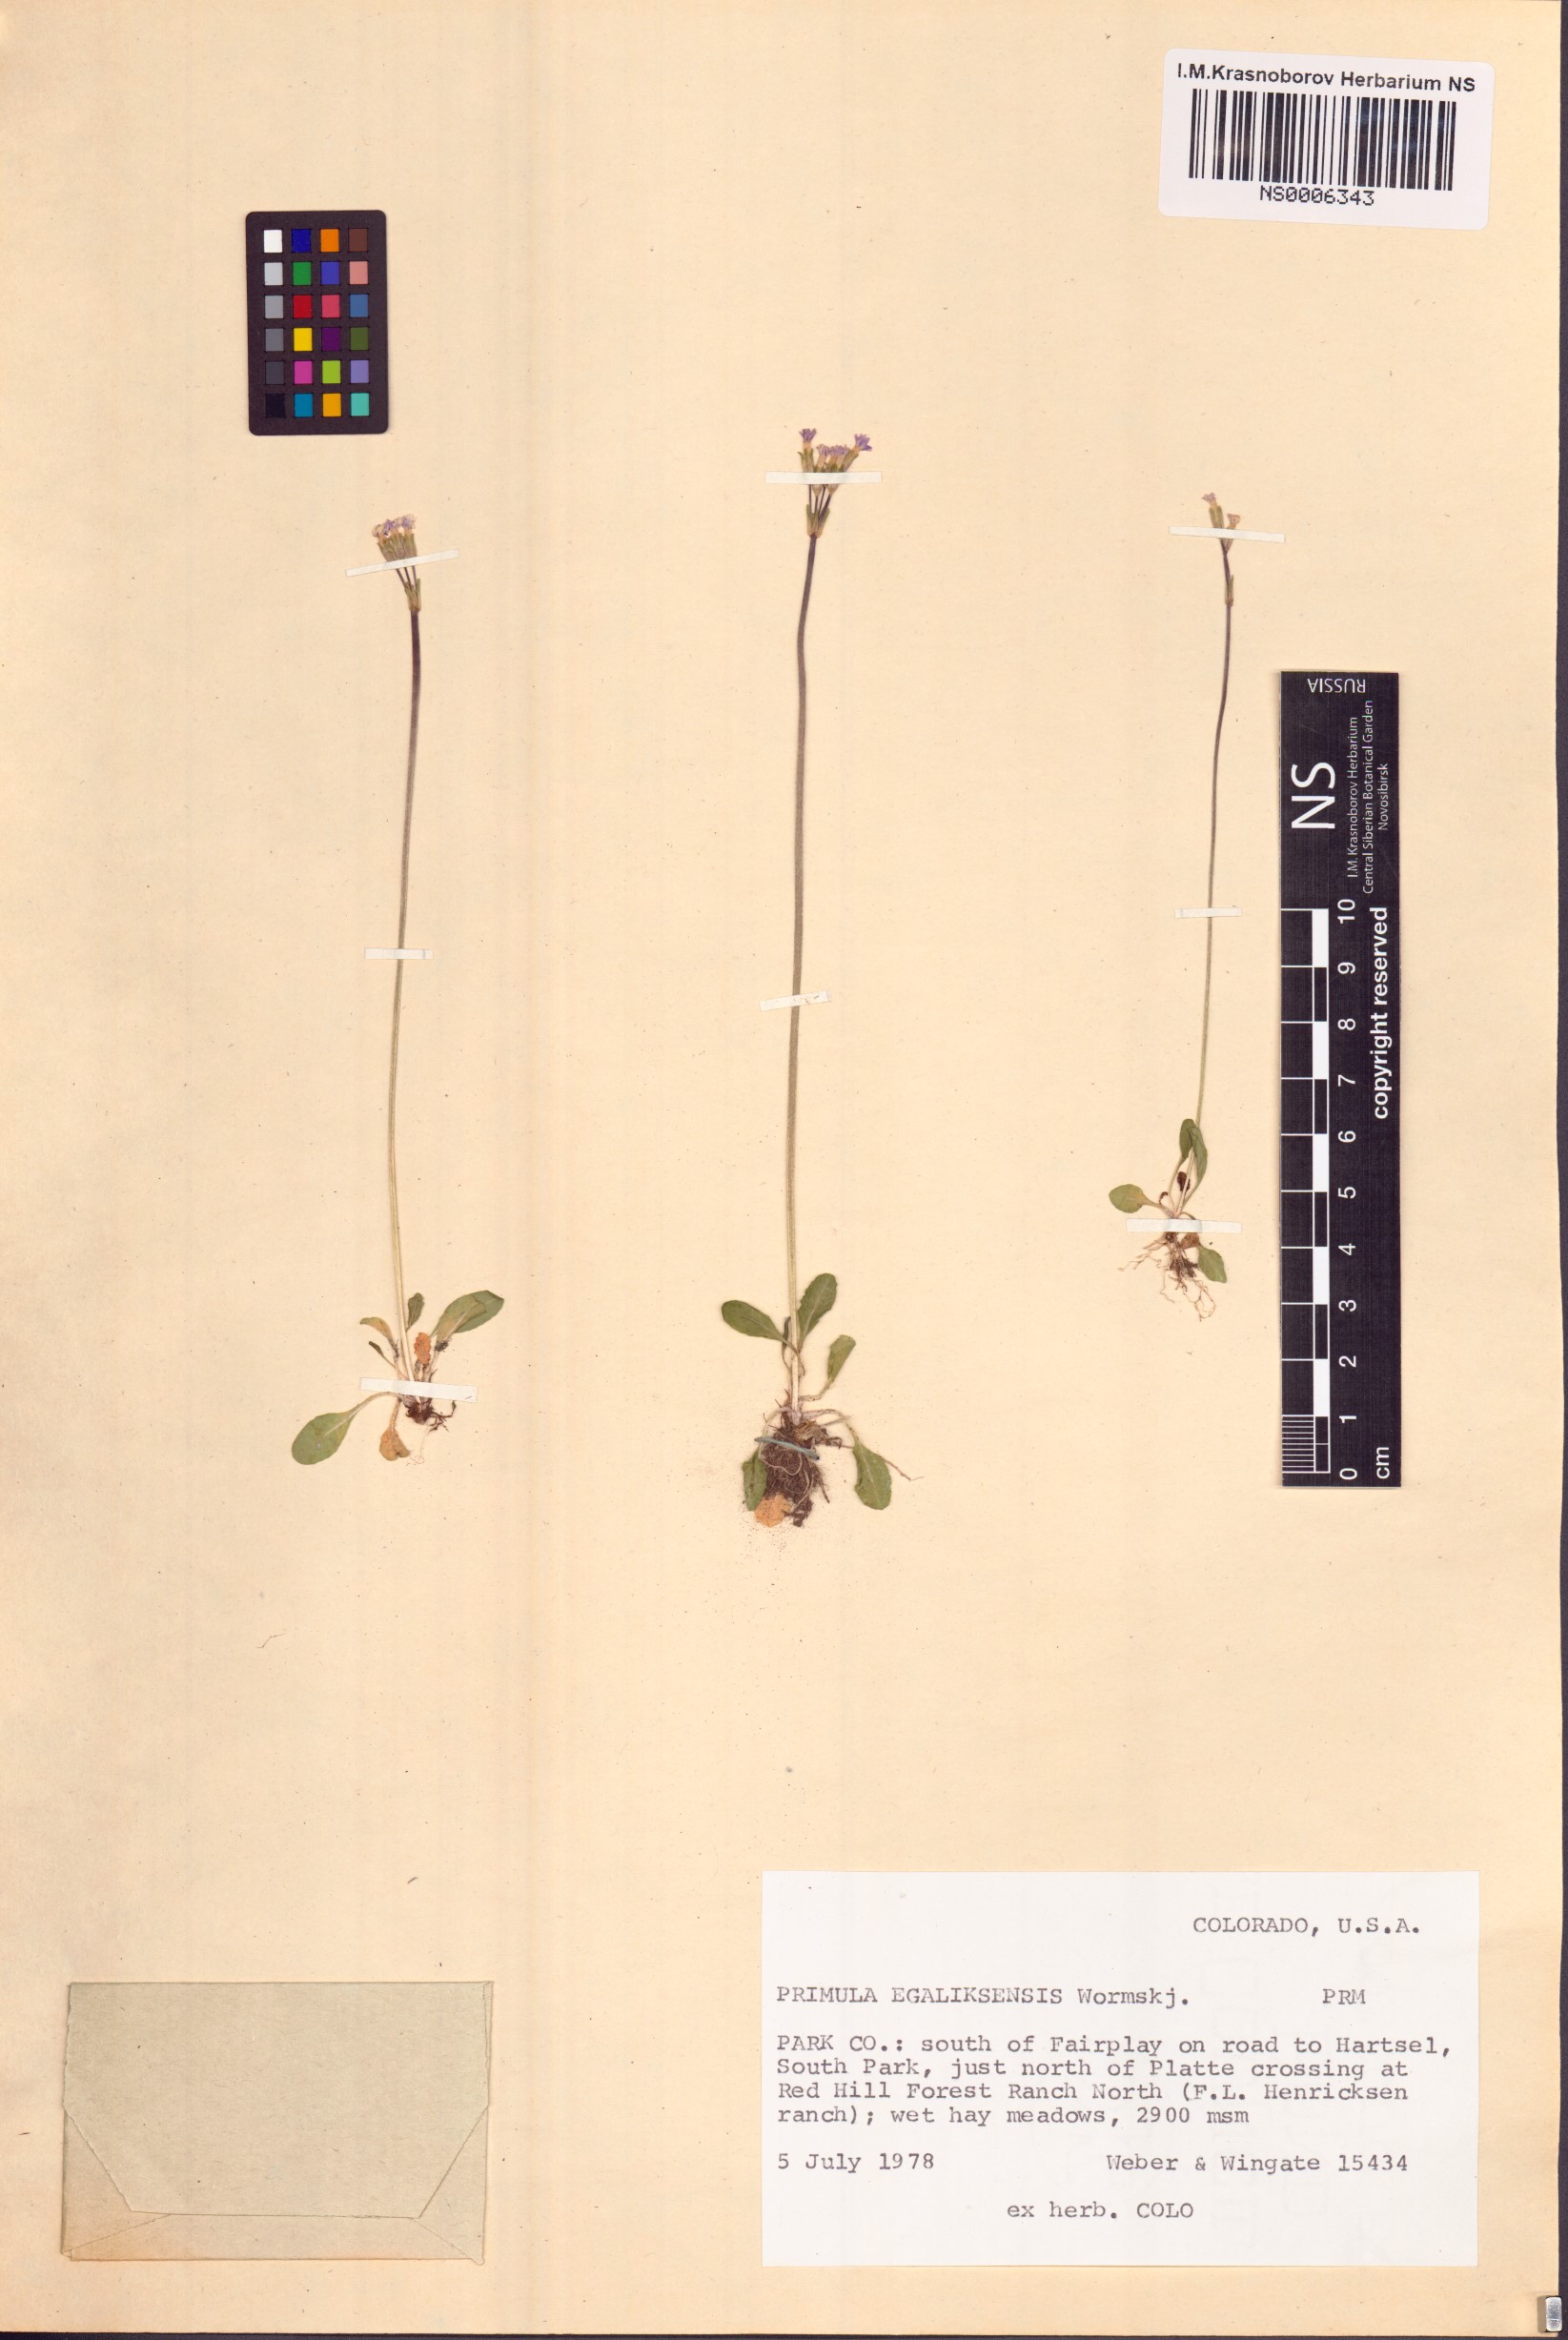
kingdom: Plantae
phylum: Tracheophyta
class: Magnoliopsida
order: Ericales
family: Primulaceae
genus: Primula
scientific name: Primula egaliksensis
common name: Greenland primrose
